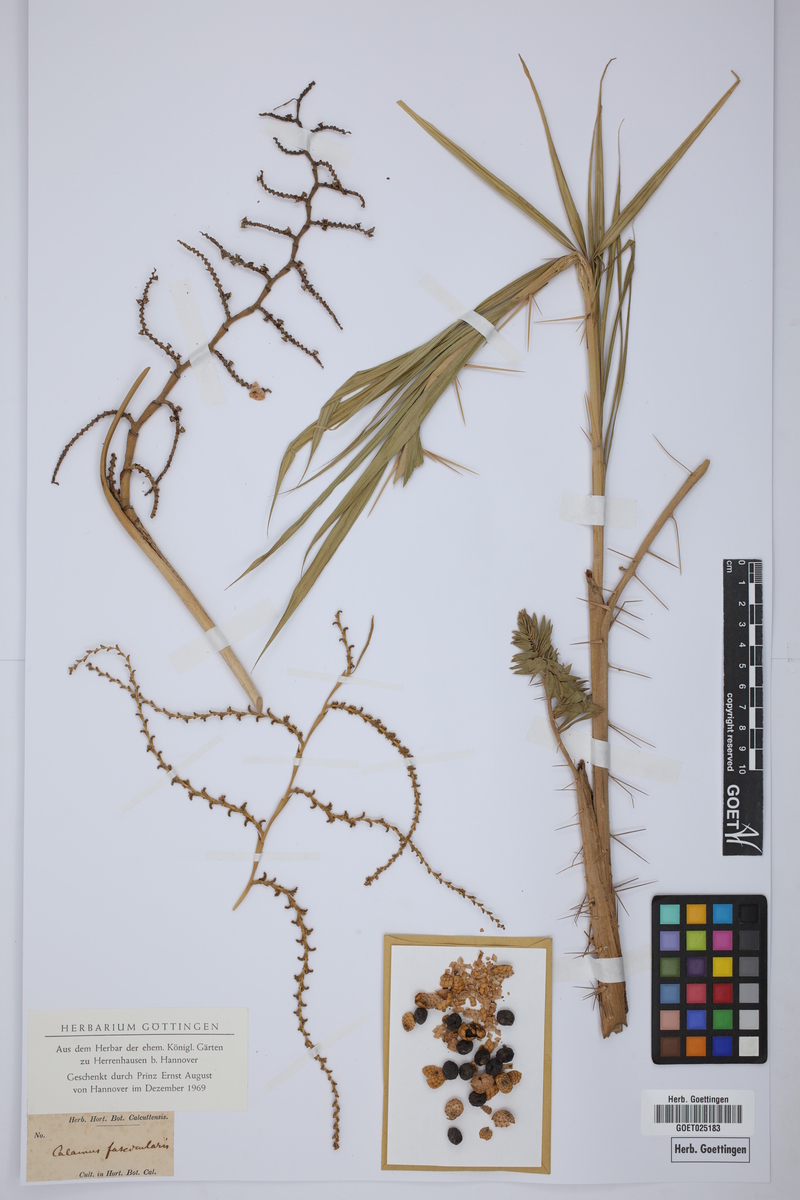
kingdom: Plantae
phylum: Tracheophyta
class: Liliopsida
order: Arecales
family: Arecaceae
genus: Calamus
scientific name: Calamus
